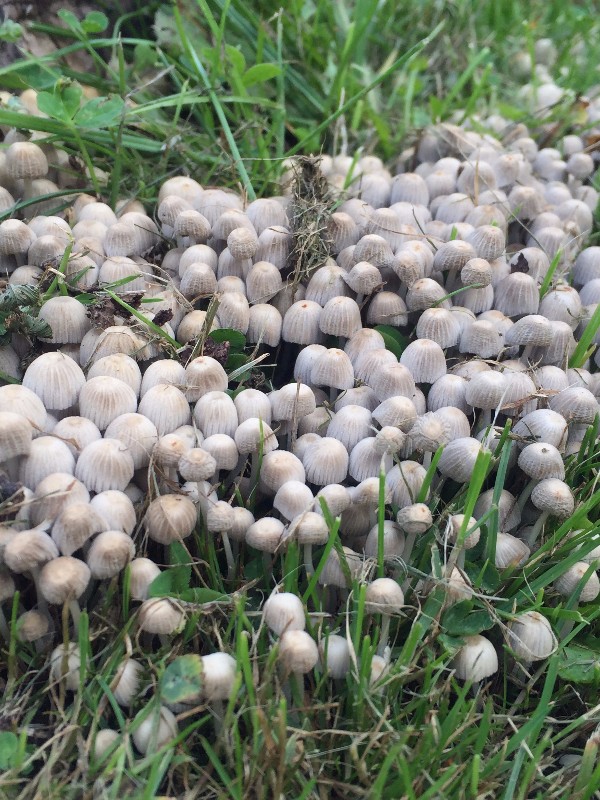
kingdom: Fungi
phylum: Basidiomycota
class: Agaricomycetes
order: Agaricales
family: Psathyrellaceae
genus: Coprinellus
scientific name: Coprinellus disseminatus
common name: bredsået blækhat
